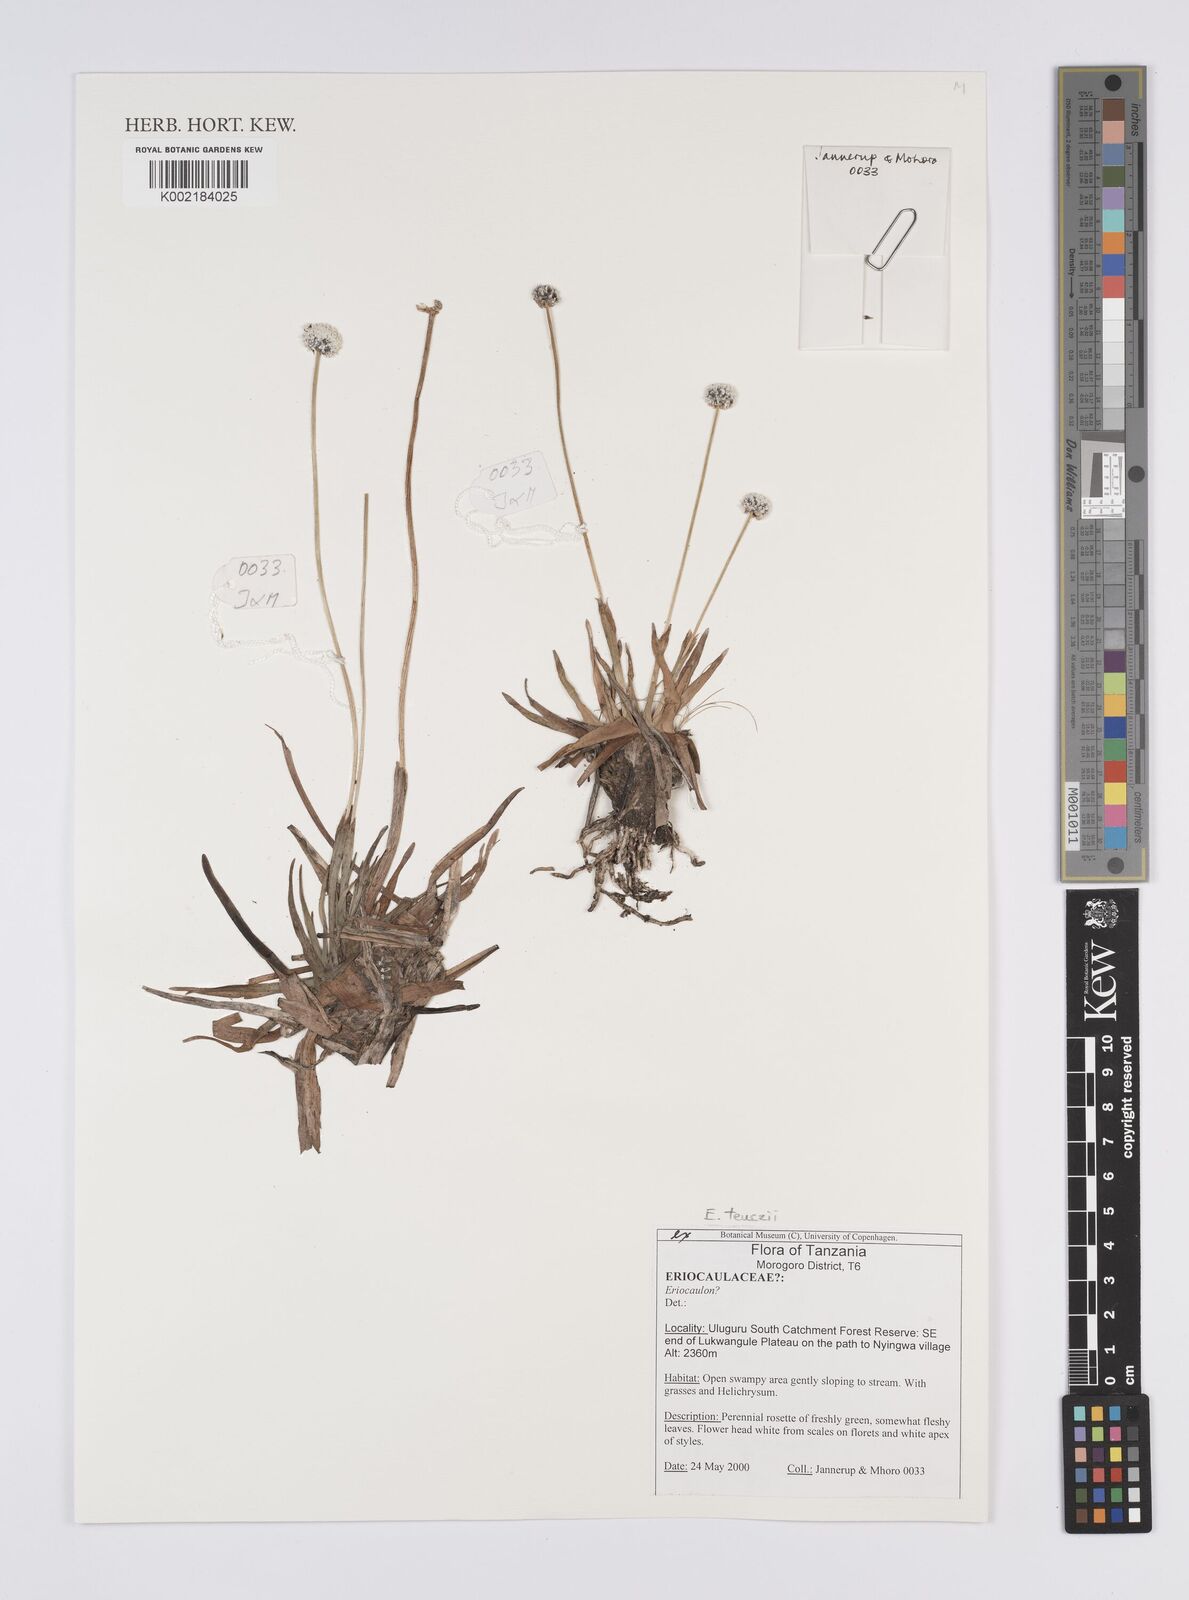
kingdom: Plantae
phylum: Tracheophyta
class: Liliopsida
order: Poales
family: Eriocaulaceae
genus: Eriocaulon
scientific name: Eriocaulon teusczii
